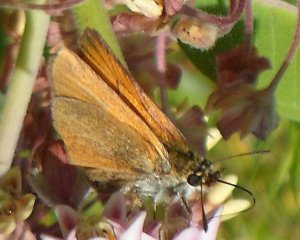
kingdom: Animalia
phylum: Arthropoda
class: Insecta
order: Lepidoptera
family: Hesperiidae
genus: Thymelicus
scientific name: Thymelicus lineola
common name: European Skipper
